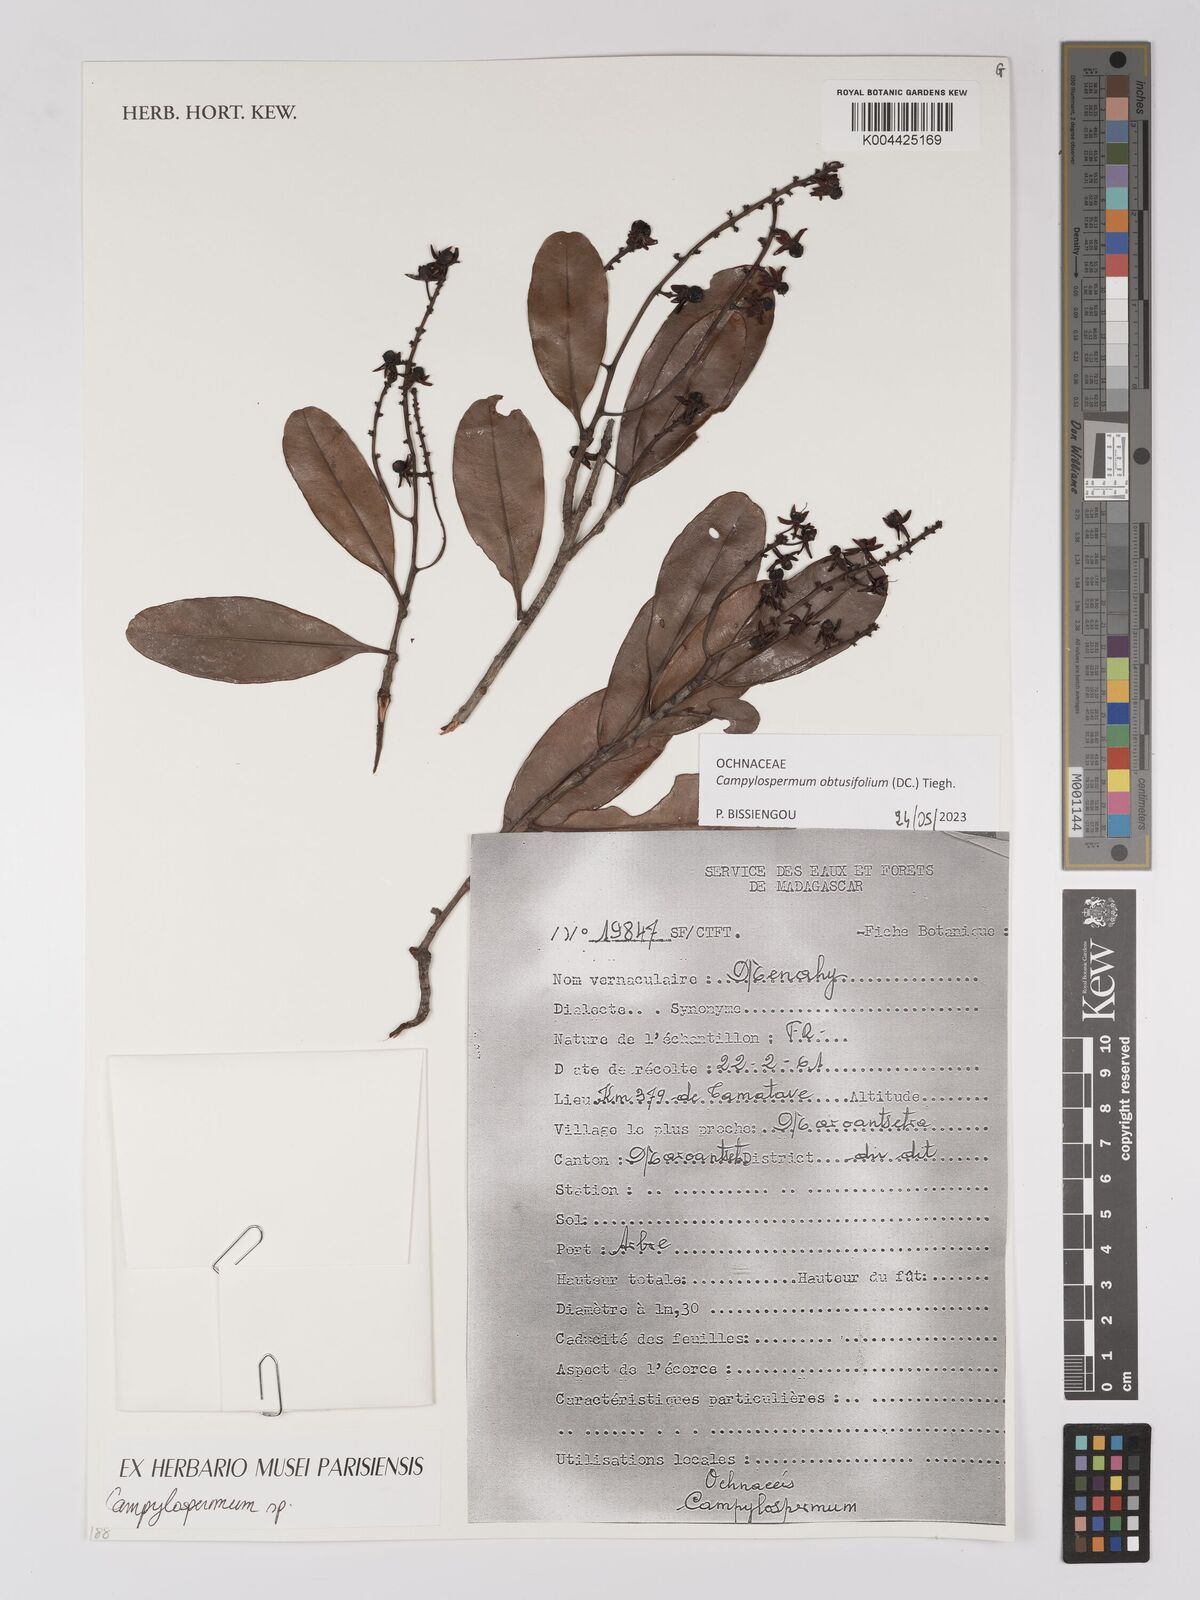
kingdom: Plantae
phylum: Tracheophyta
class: Magnoliopsida
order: Malpighiales
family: Ochnaceae
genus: Campylospermum
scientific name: Campylospermum
